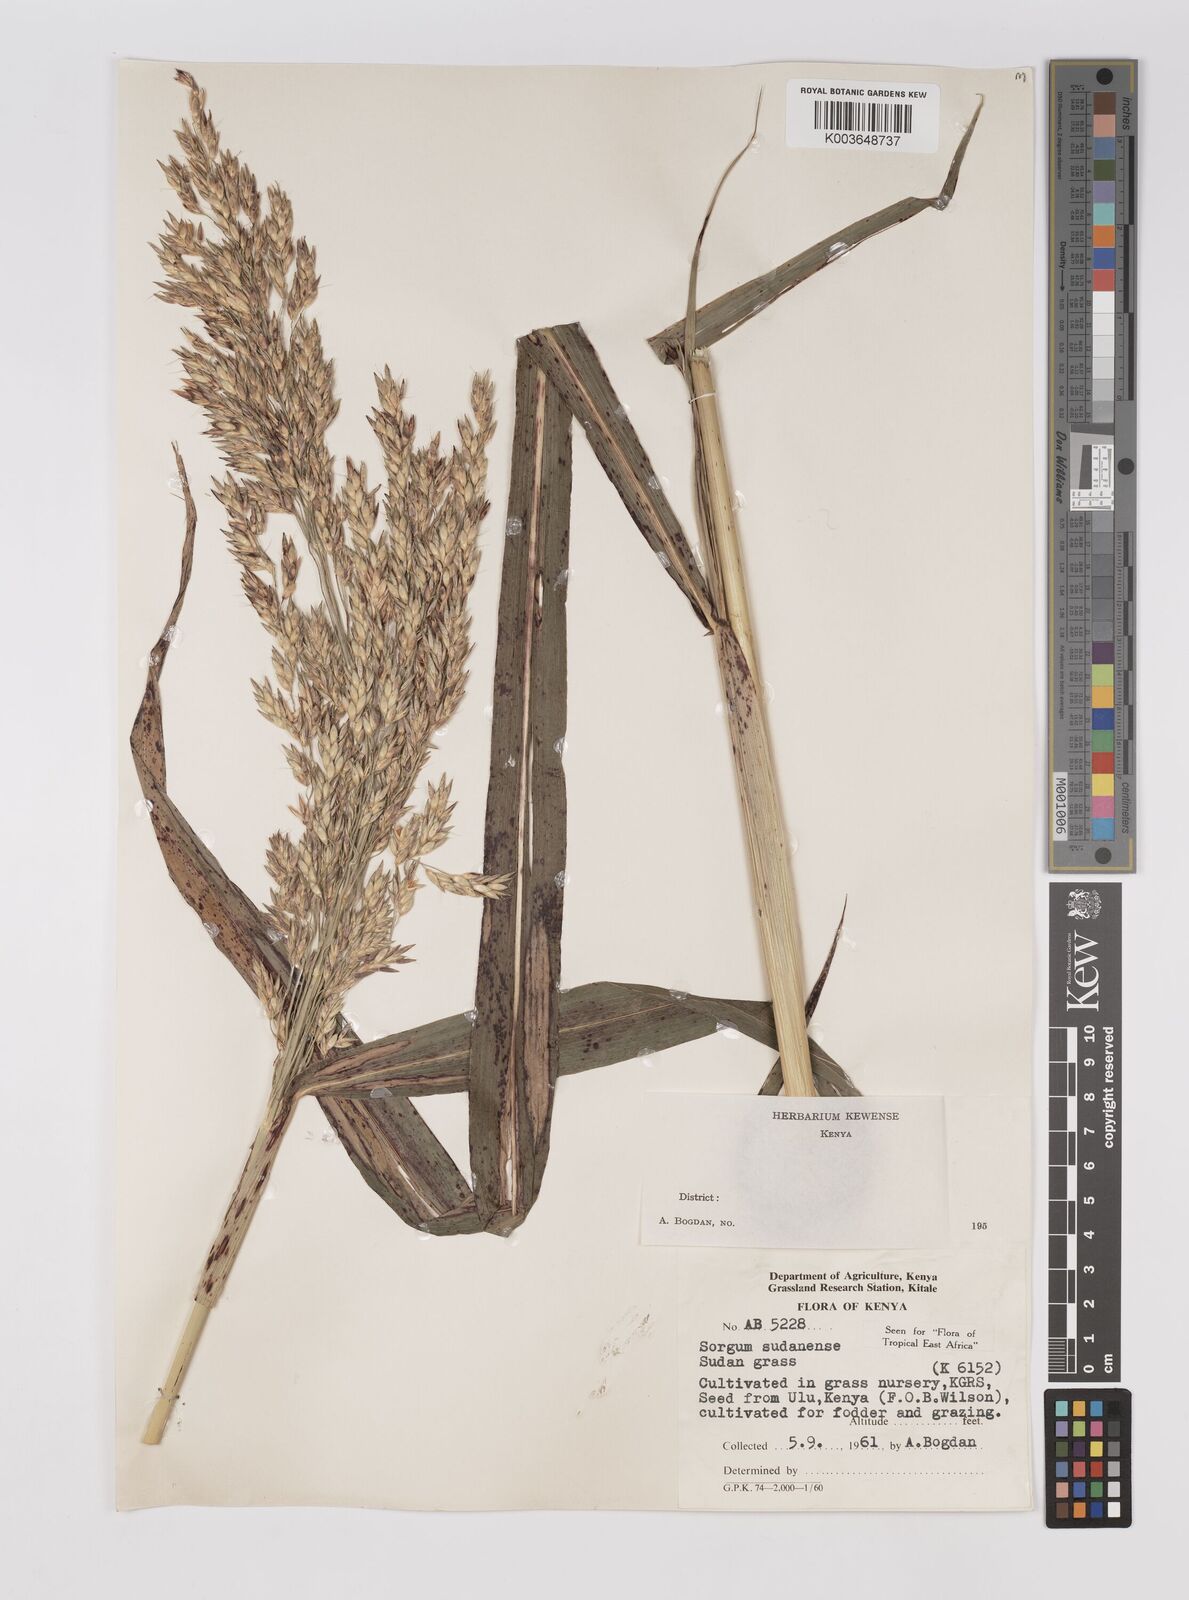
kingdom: Plantae
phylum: Tracheophyta
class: Liliopsida
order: Poales
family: Poaceae
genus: Sorghum
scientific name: Sorghum drummondii
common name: Sudangrass
